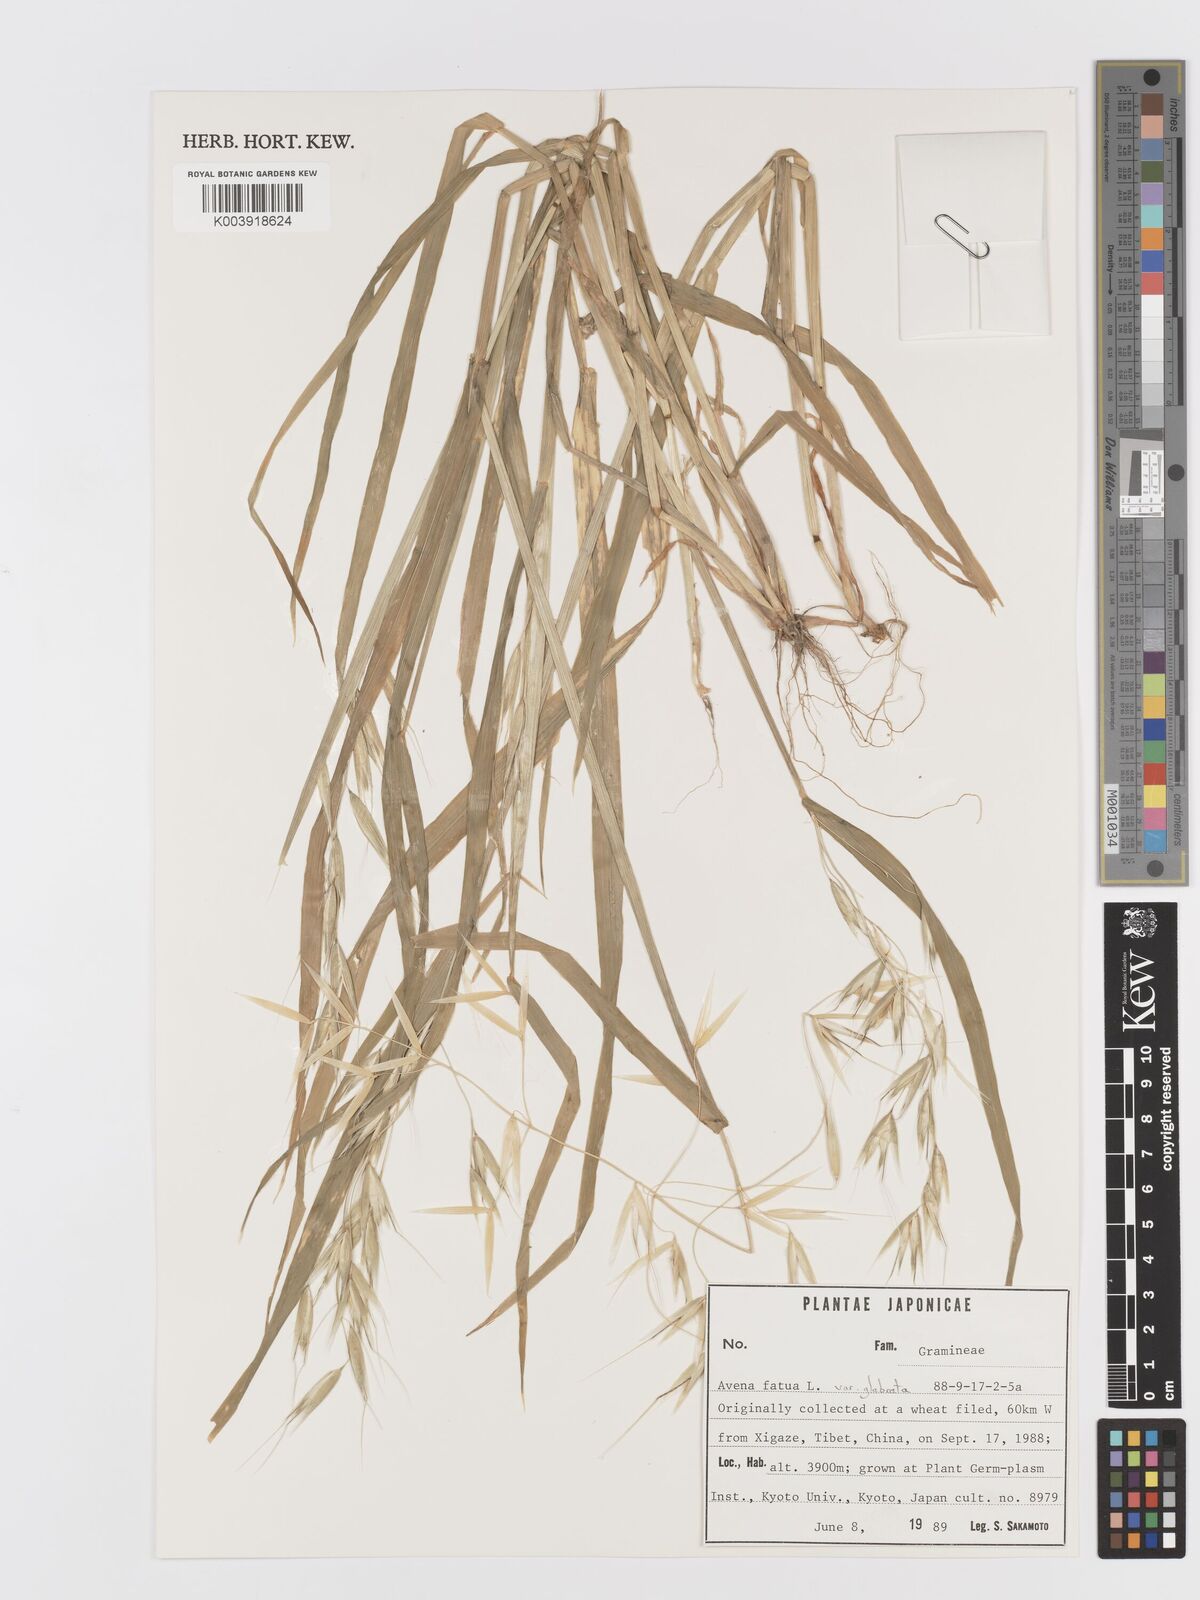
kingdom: Plantae
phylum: Tracheophyta
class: Liliopsida
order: Poales
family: Poaceae
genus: Avena
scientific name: Avena fatua
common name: Wild oat
